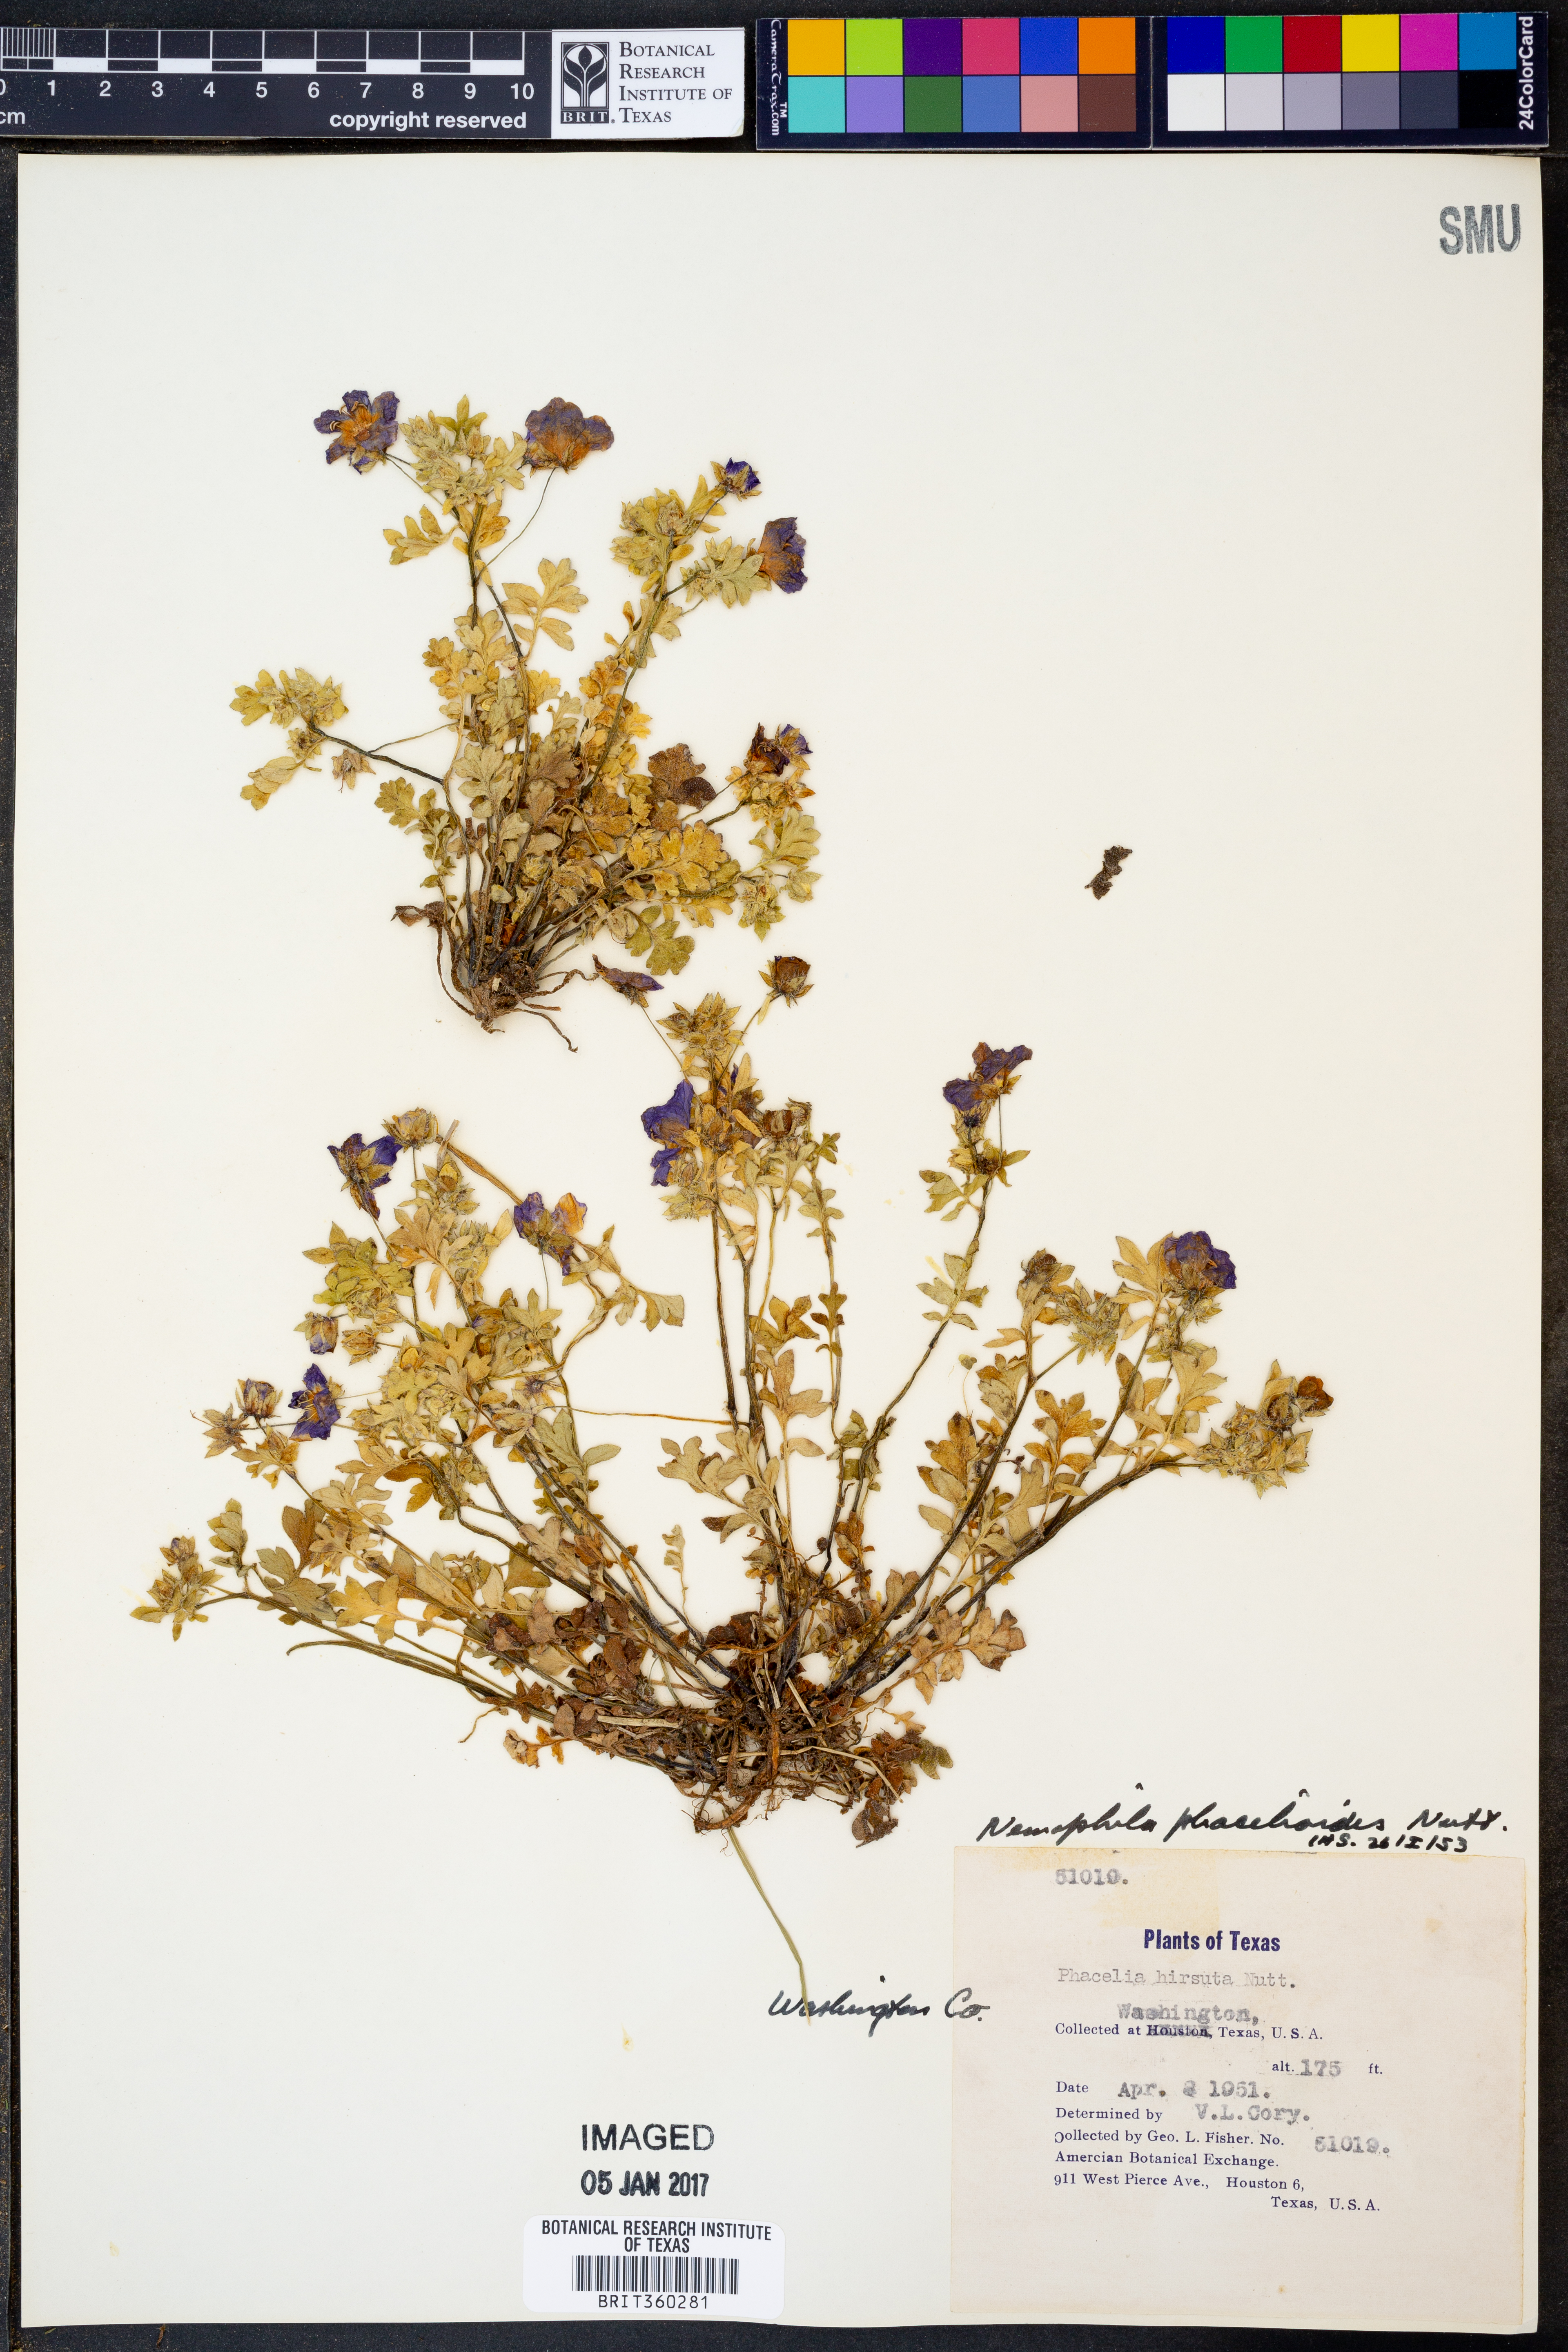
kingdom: Plantae
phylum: Tracheophyta
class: Magnoliopsida
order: Boraginales
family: Hydrophyllaceae
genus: Nemophila
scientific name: Nemophila phacelioides
